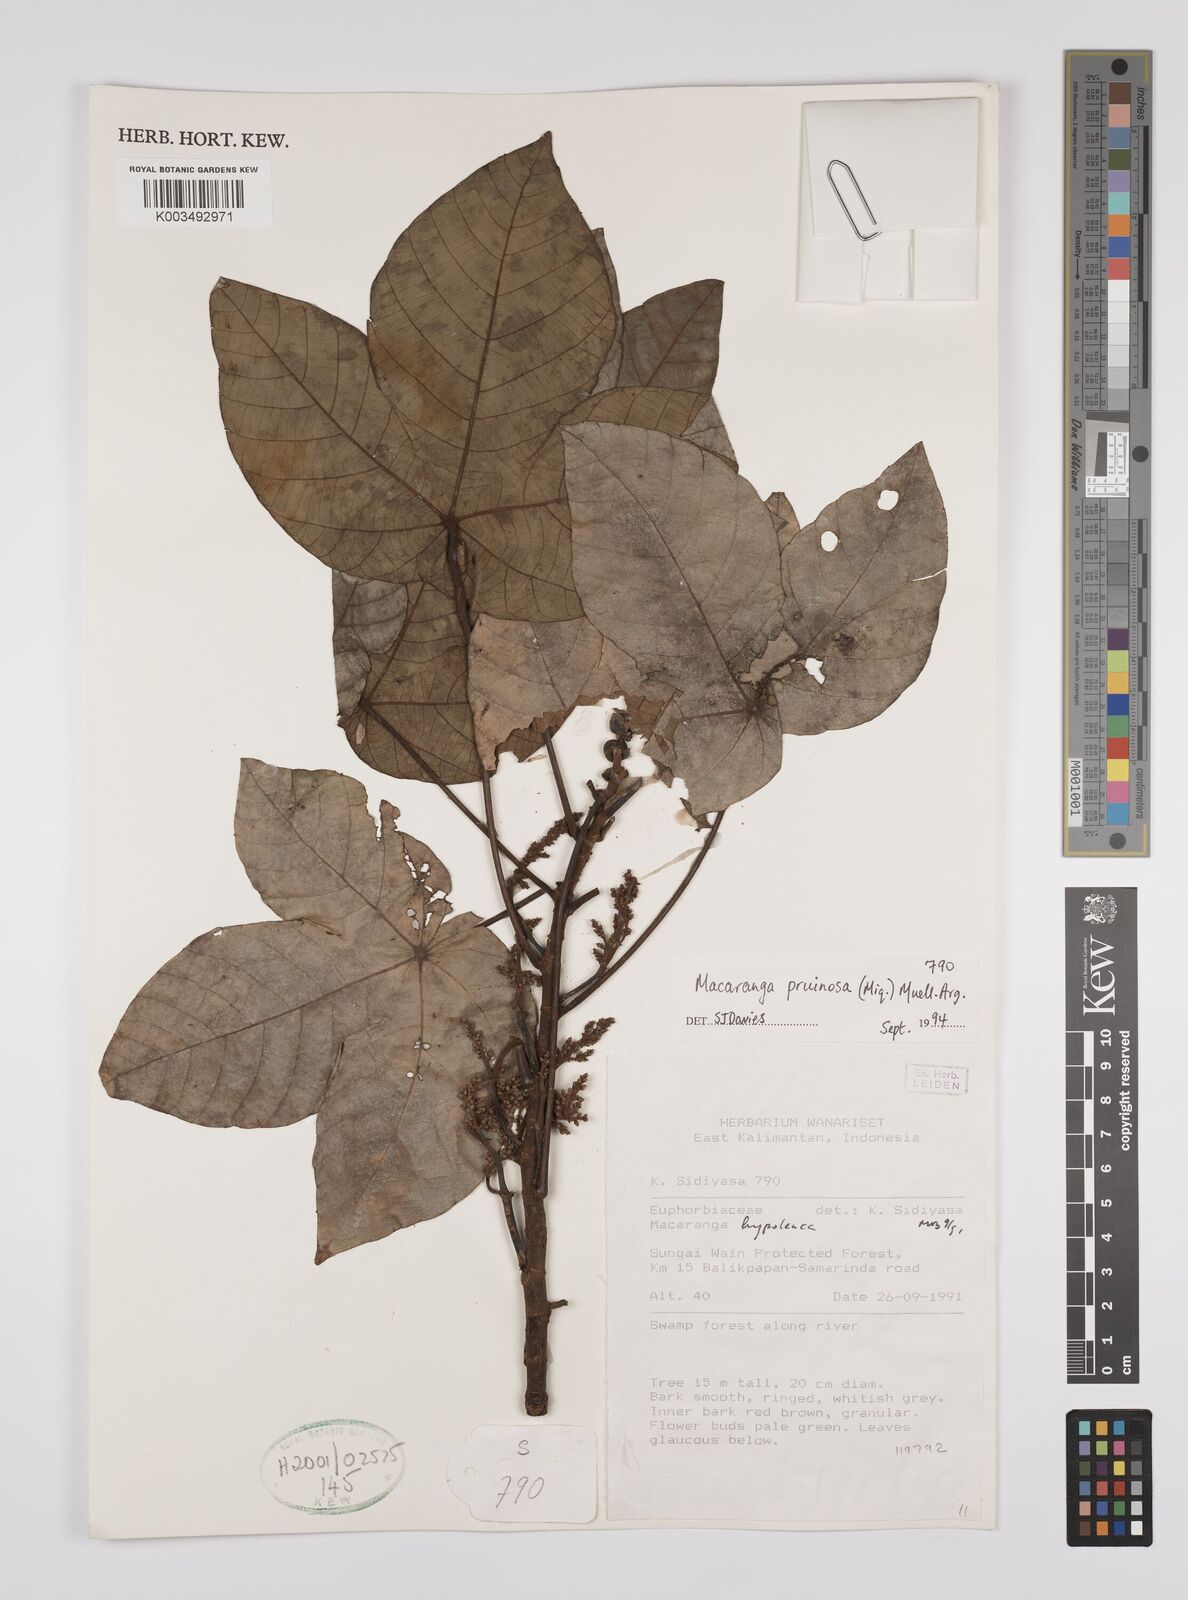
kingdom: Plantae
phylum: Tracheophyta
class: Magnoliopsida
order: Malpighiales
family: Euphorbiaceae
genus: Macaranga
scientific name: Macaranga pruinosa
